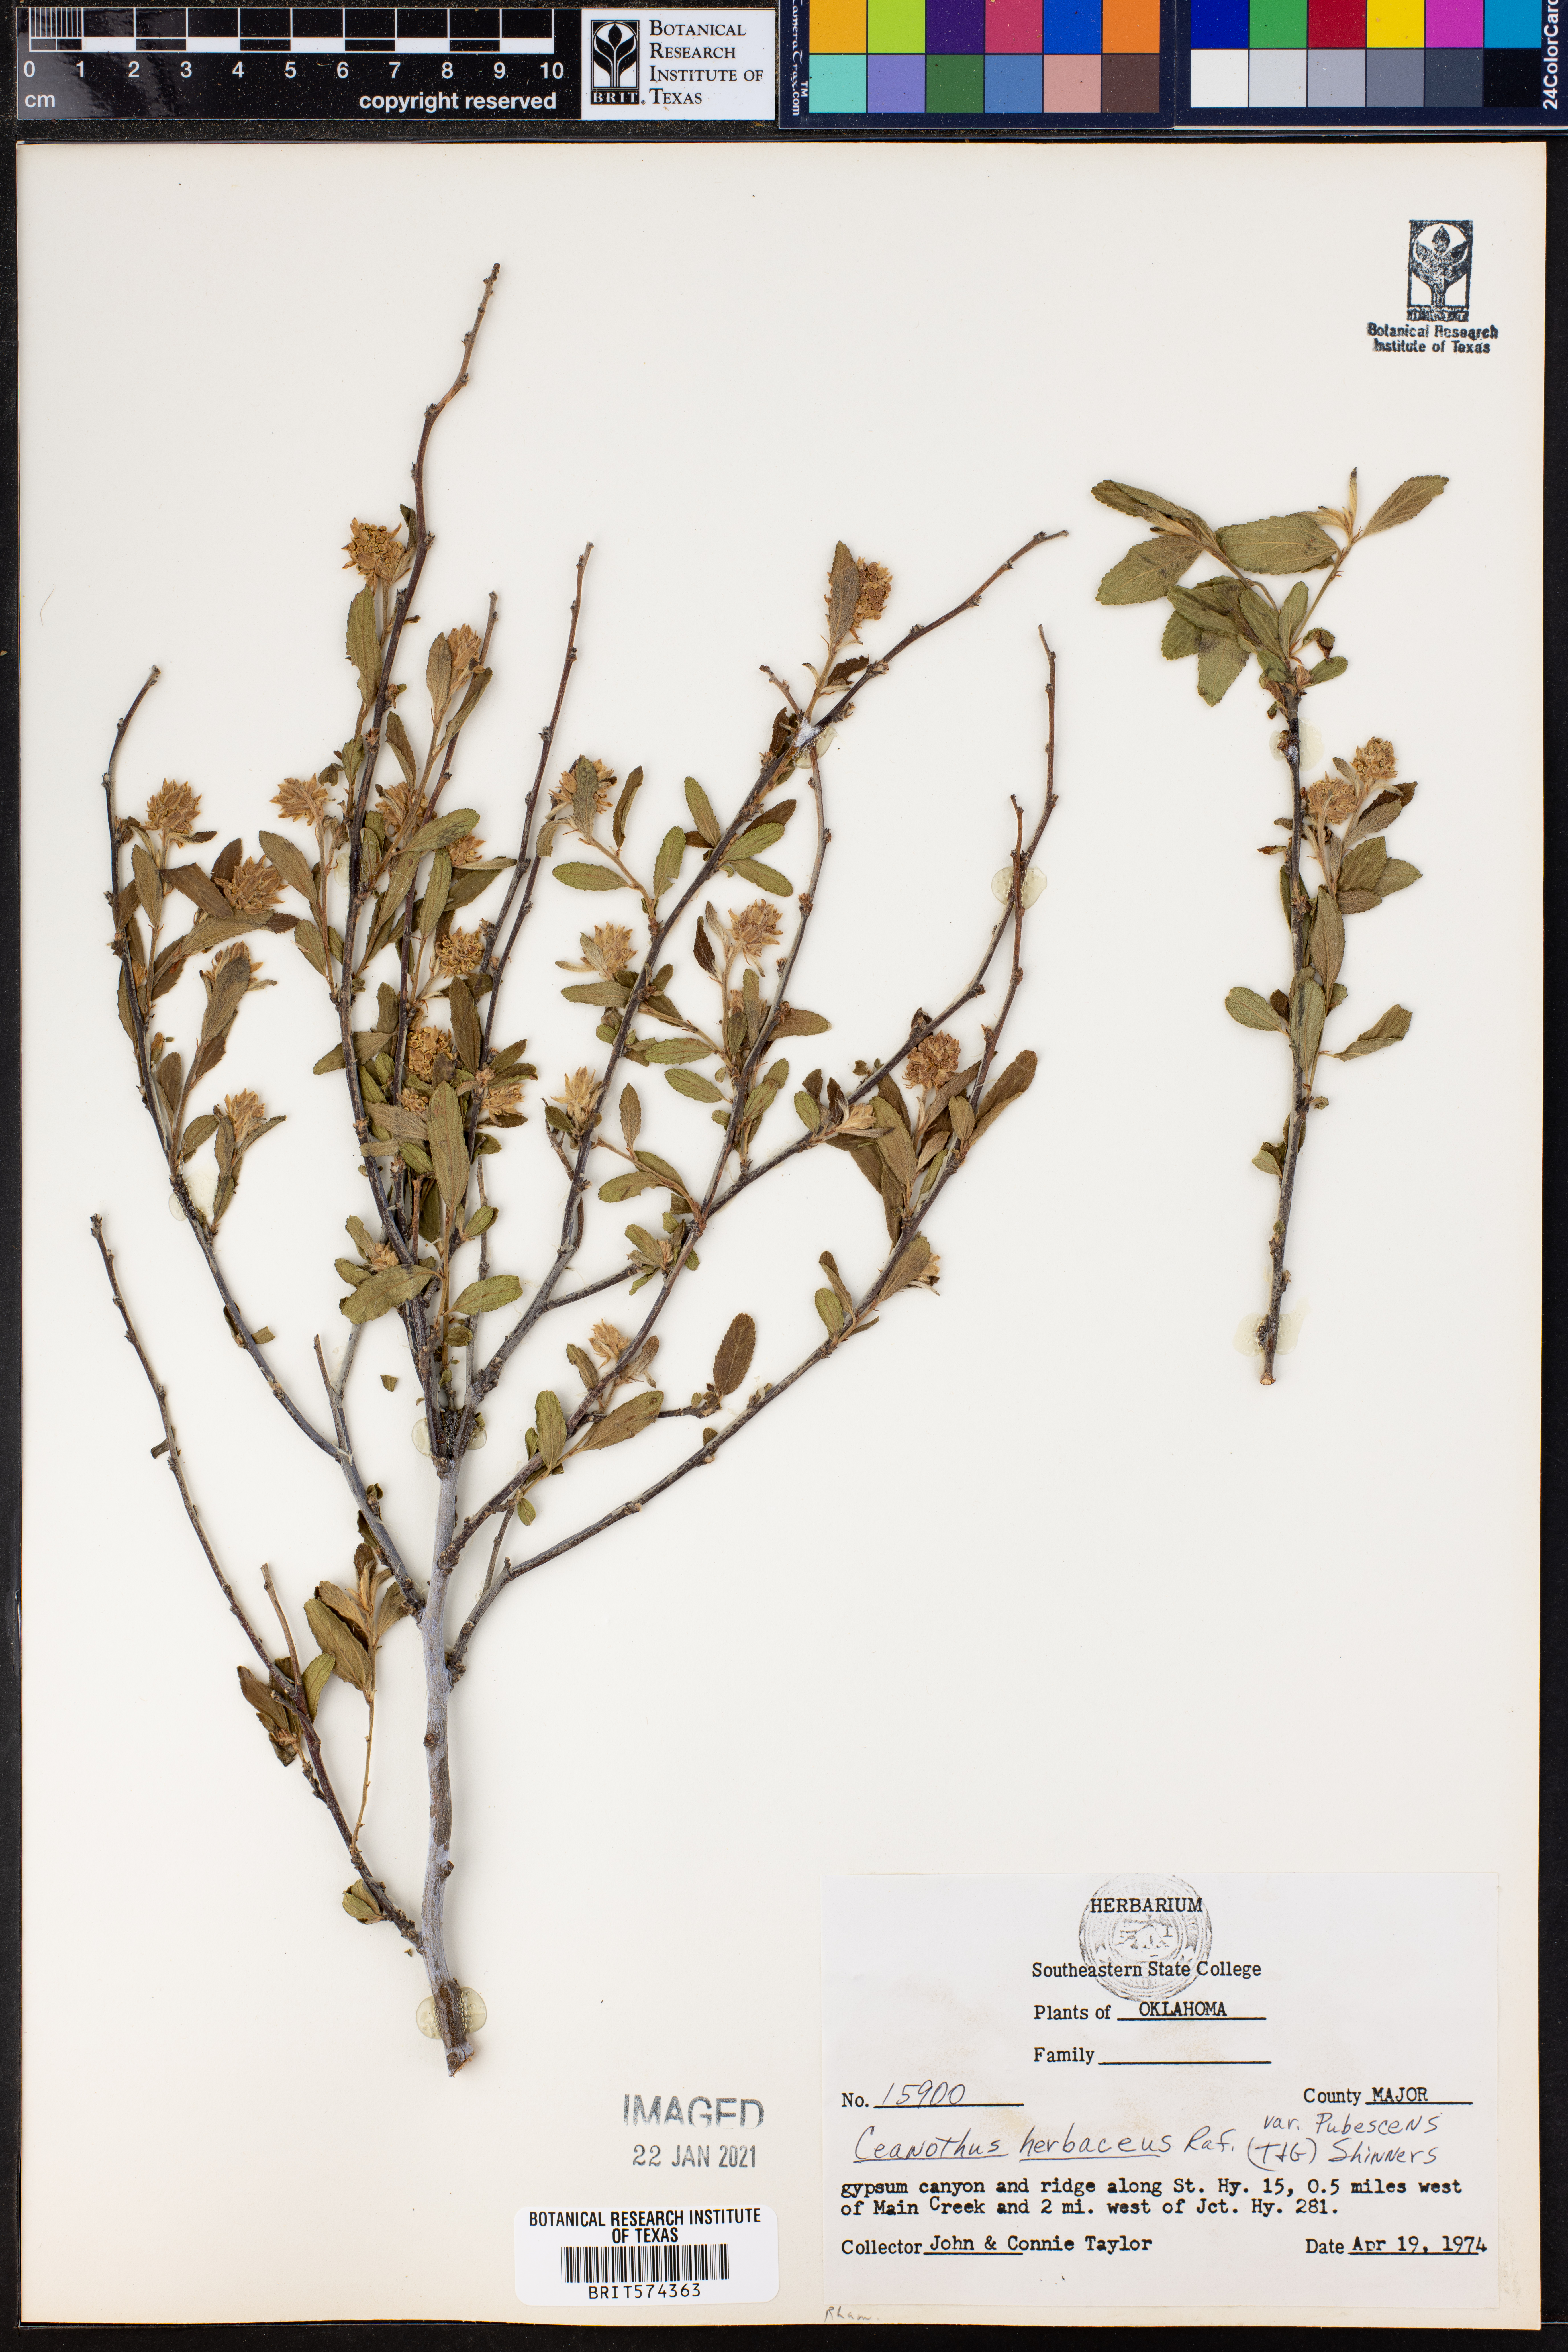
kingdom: Plantae
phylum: Tracheophyta
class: Magnoliopsida
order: Rosales
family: Rhamnaceae
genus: Ceanothus
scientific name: Ceanothus herbaceus
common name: Inland ceanothus
